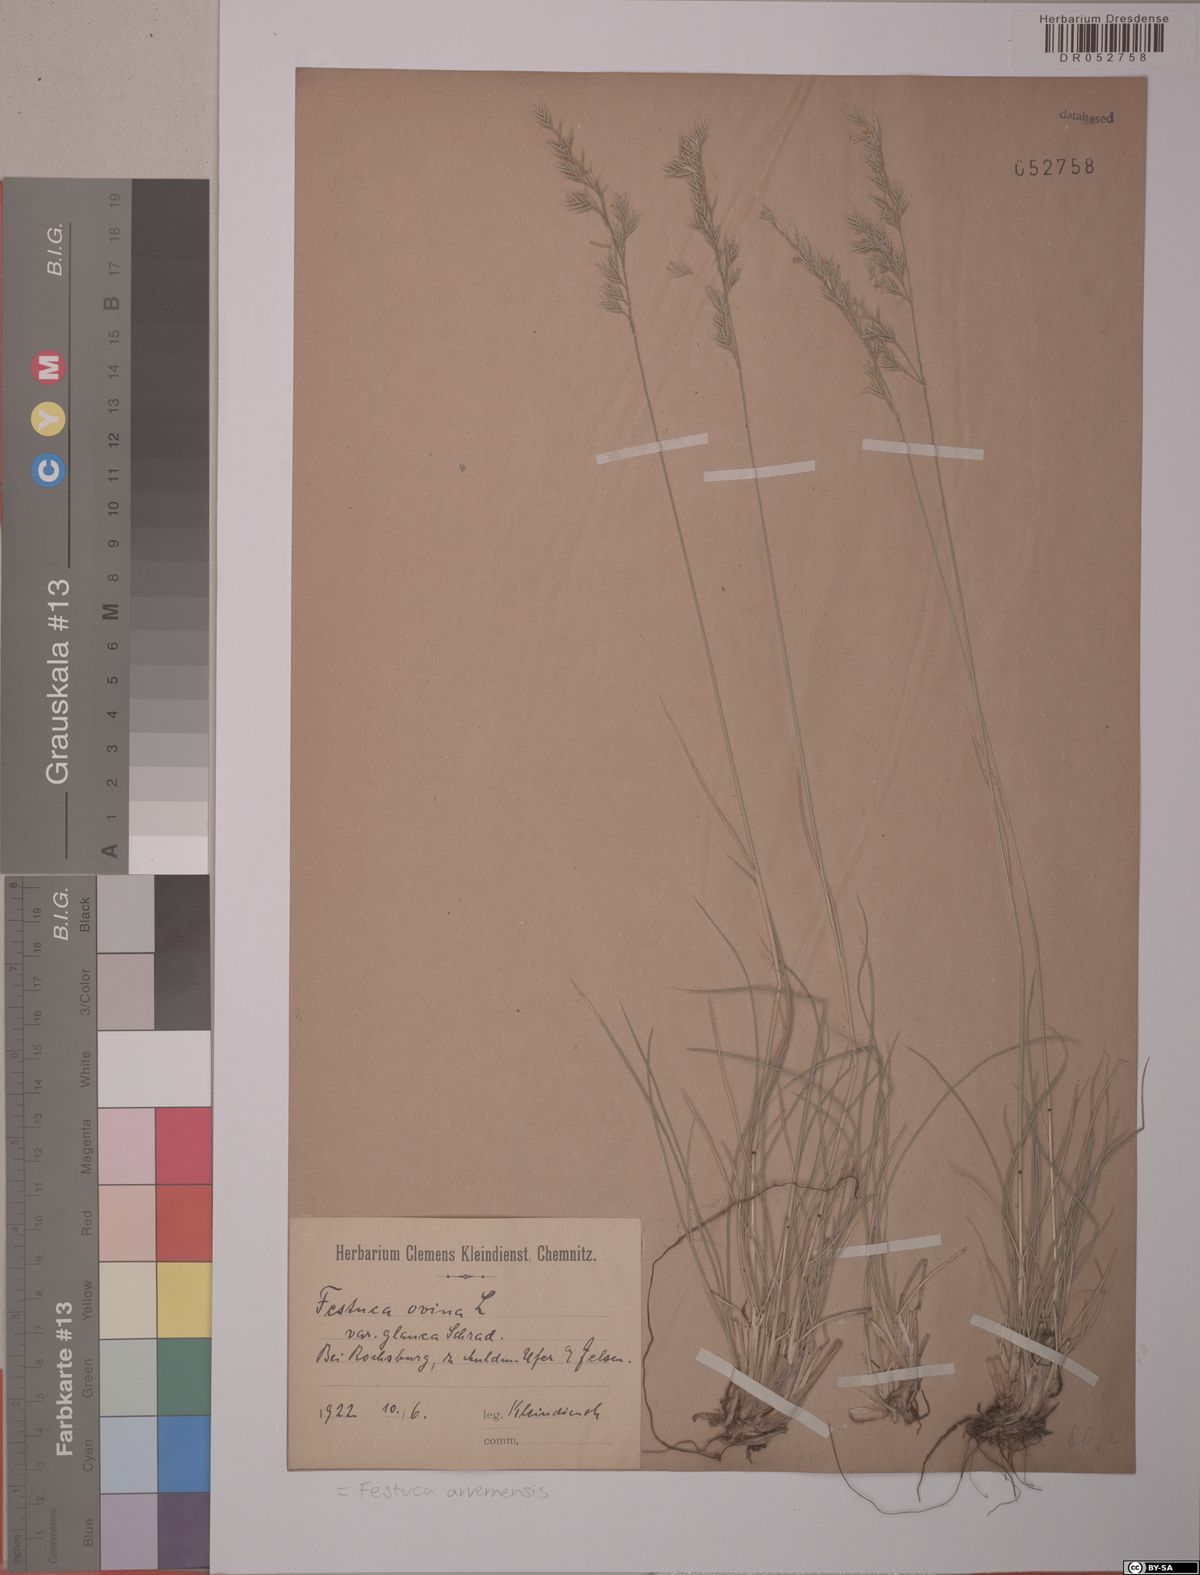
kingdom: Plantae
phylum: Tracheophyta
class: Liliopsida
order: Poales
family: Poaceae
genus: Festuca
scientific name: Festuca pallens
